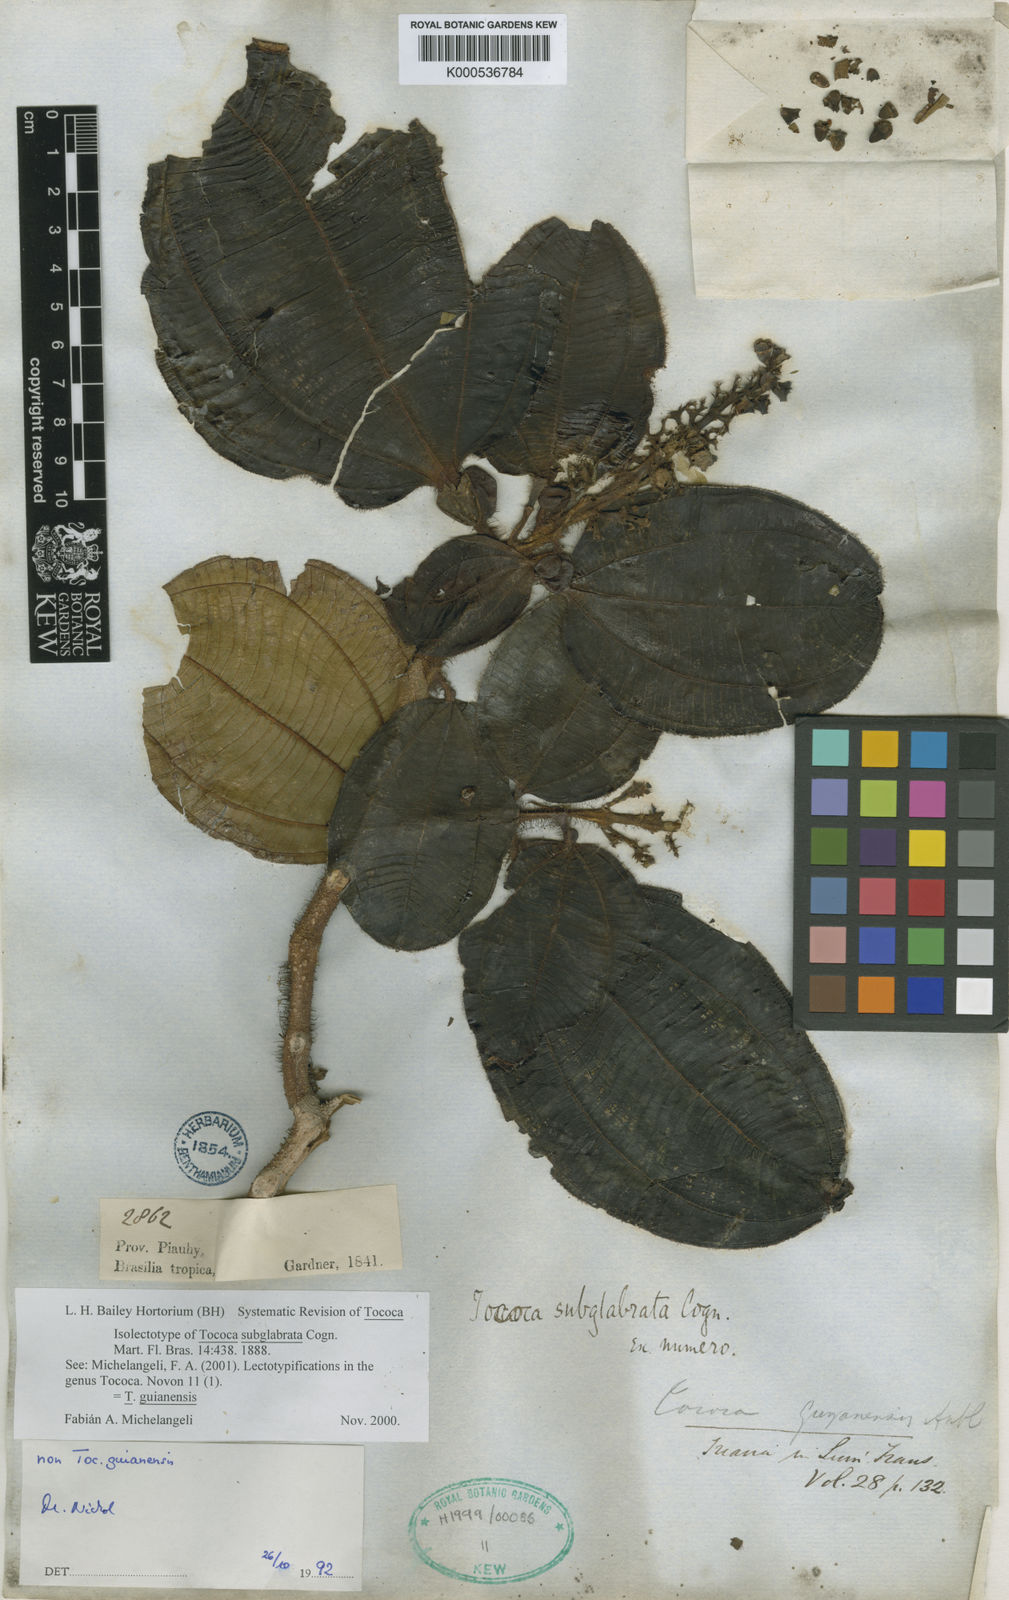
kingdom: Plantae
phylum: Tracheophyta
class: Magnoliopsida
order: Myrtales
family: Melastomataceae
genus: Miconia
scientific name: Miconia tococa
